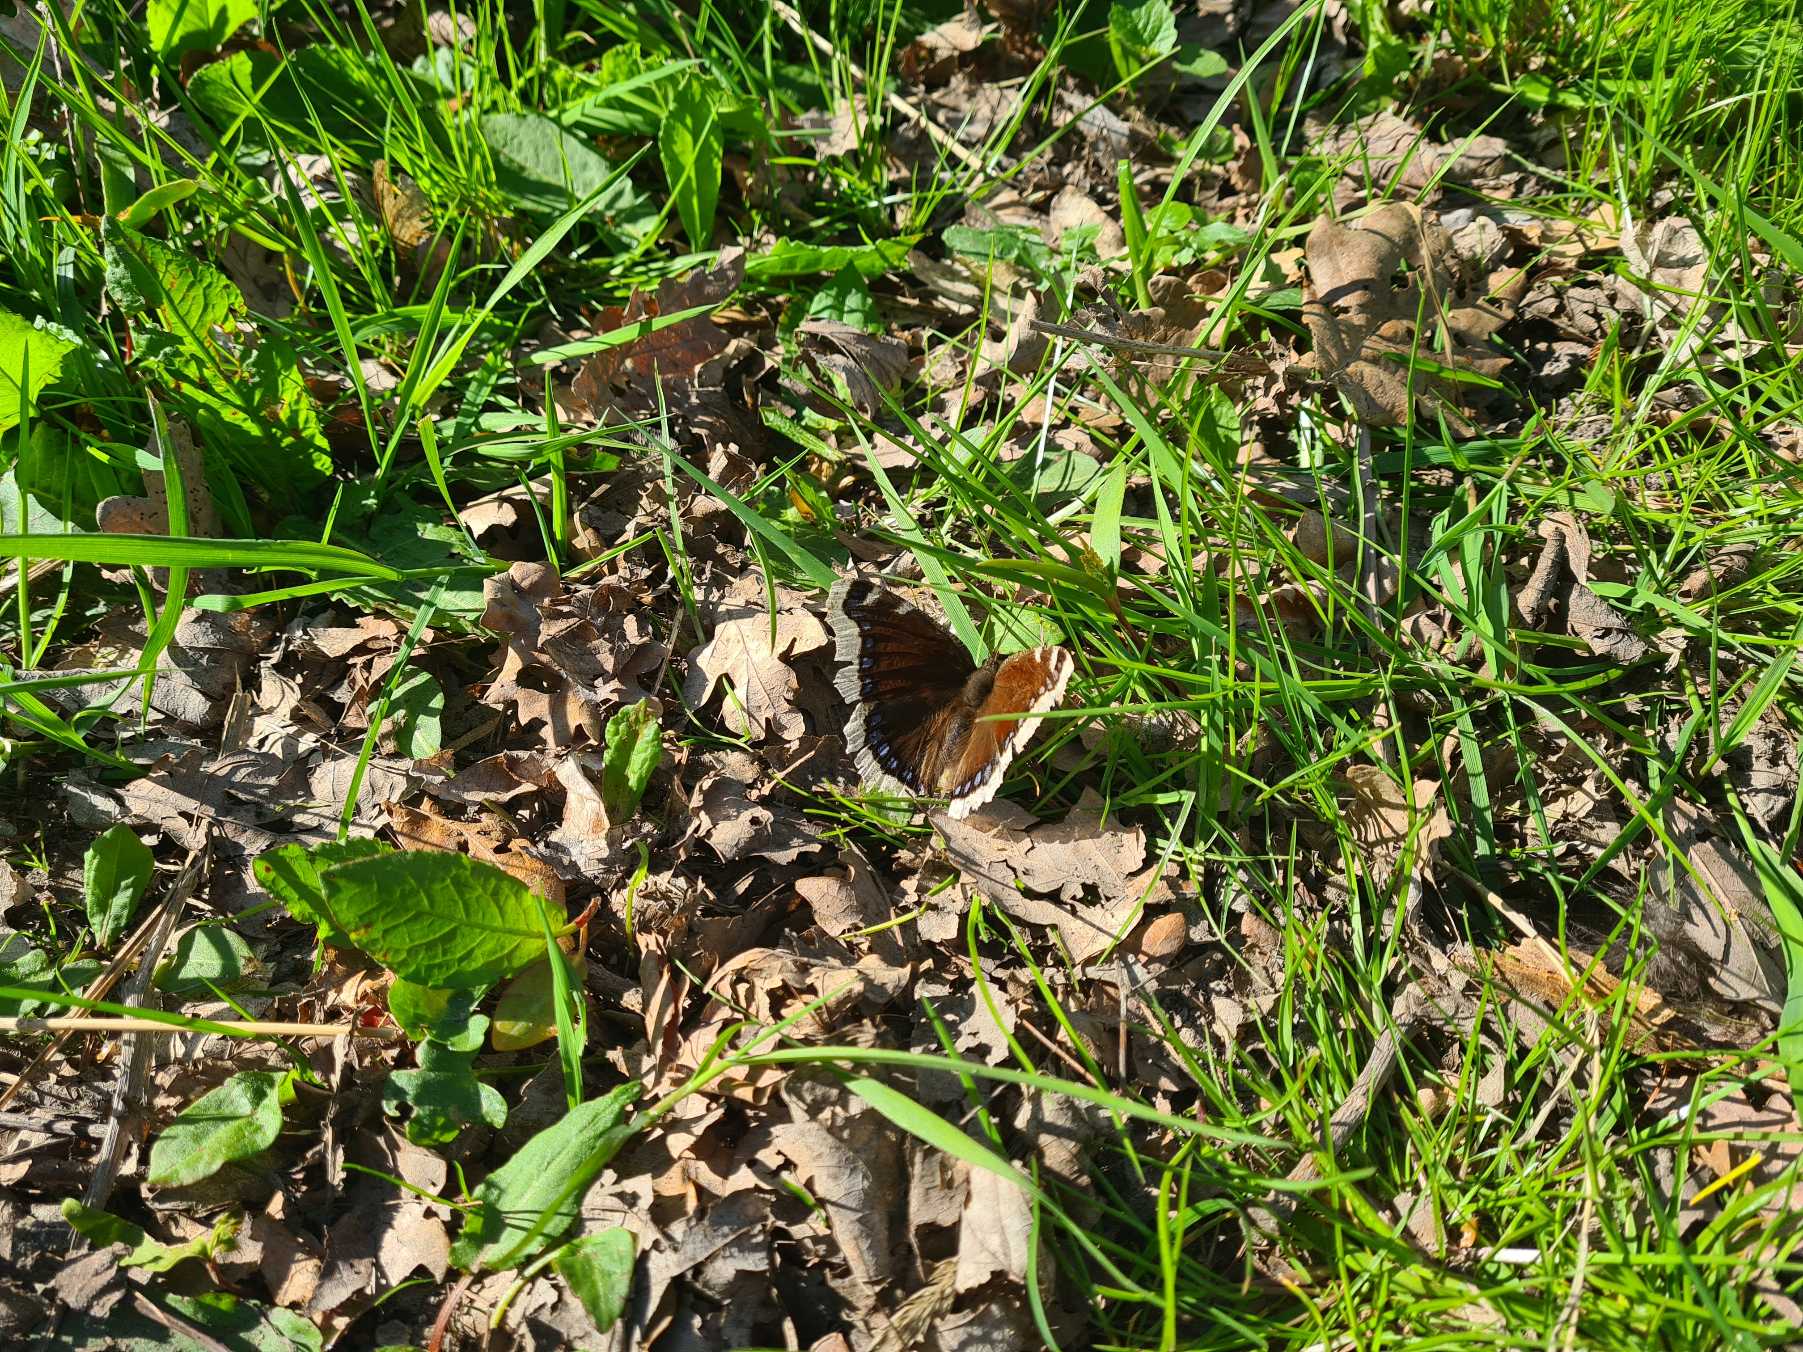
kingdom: Animalia
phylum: Arthropoda
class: Insecta
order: Lepidoptera
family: Nymphalidae
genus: Nymphalis
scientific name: Nymphalis antiopa
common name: Sørgekåbe
